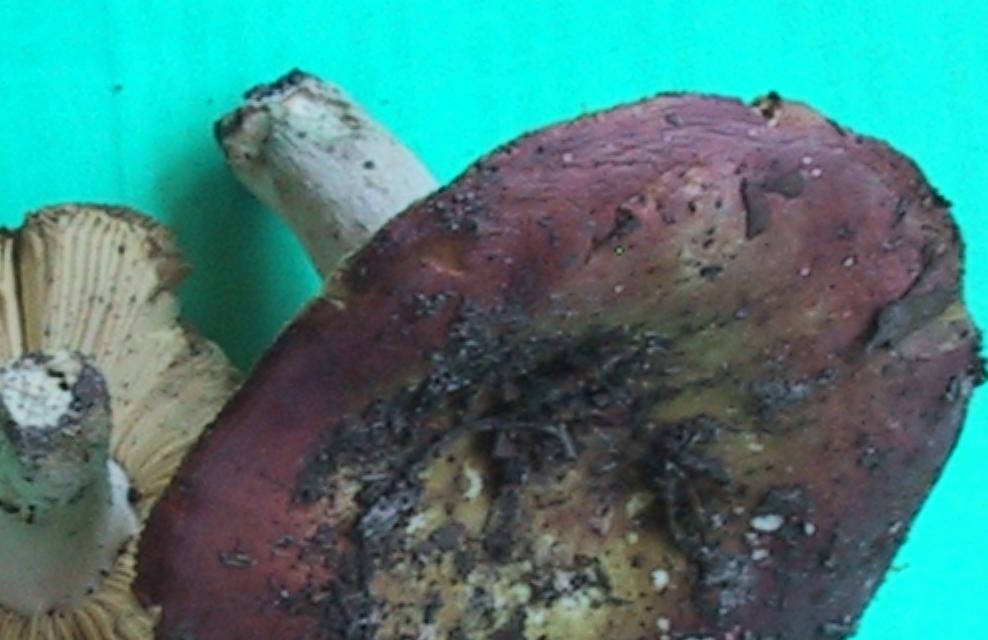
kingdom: Fungi
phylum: Basidiomycota
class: Agaricomycetes
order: Russulales
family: Russulaceae
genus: Russula
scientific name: Russula curtipes
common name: kortstokket skørhat
